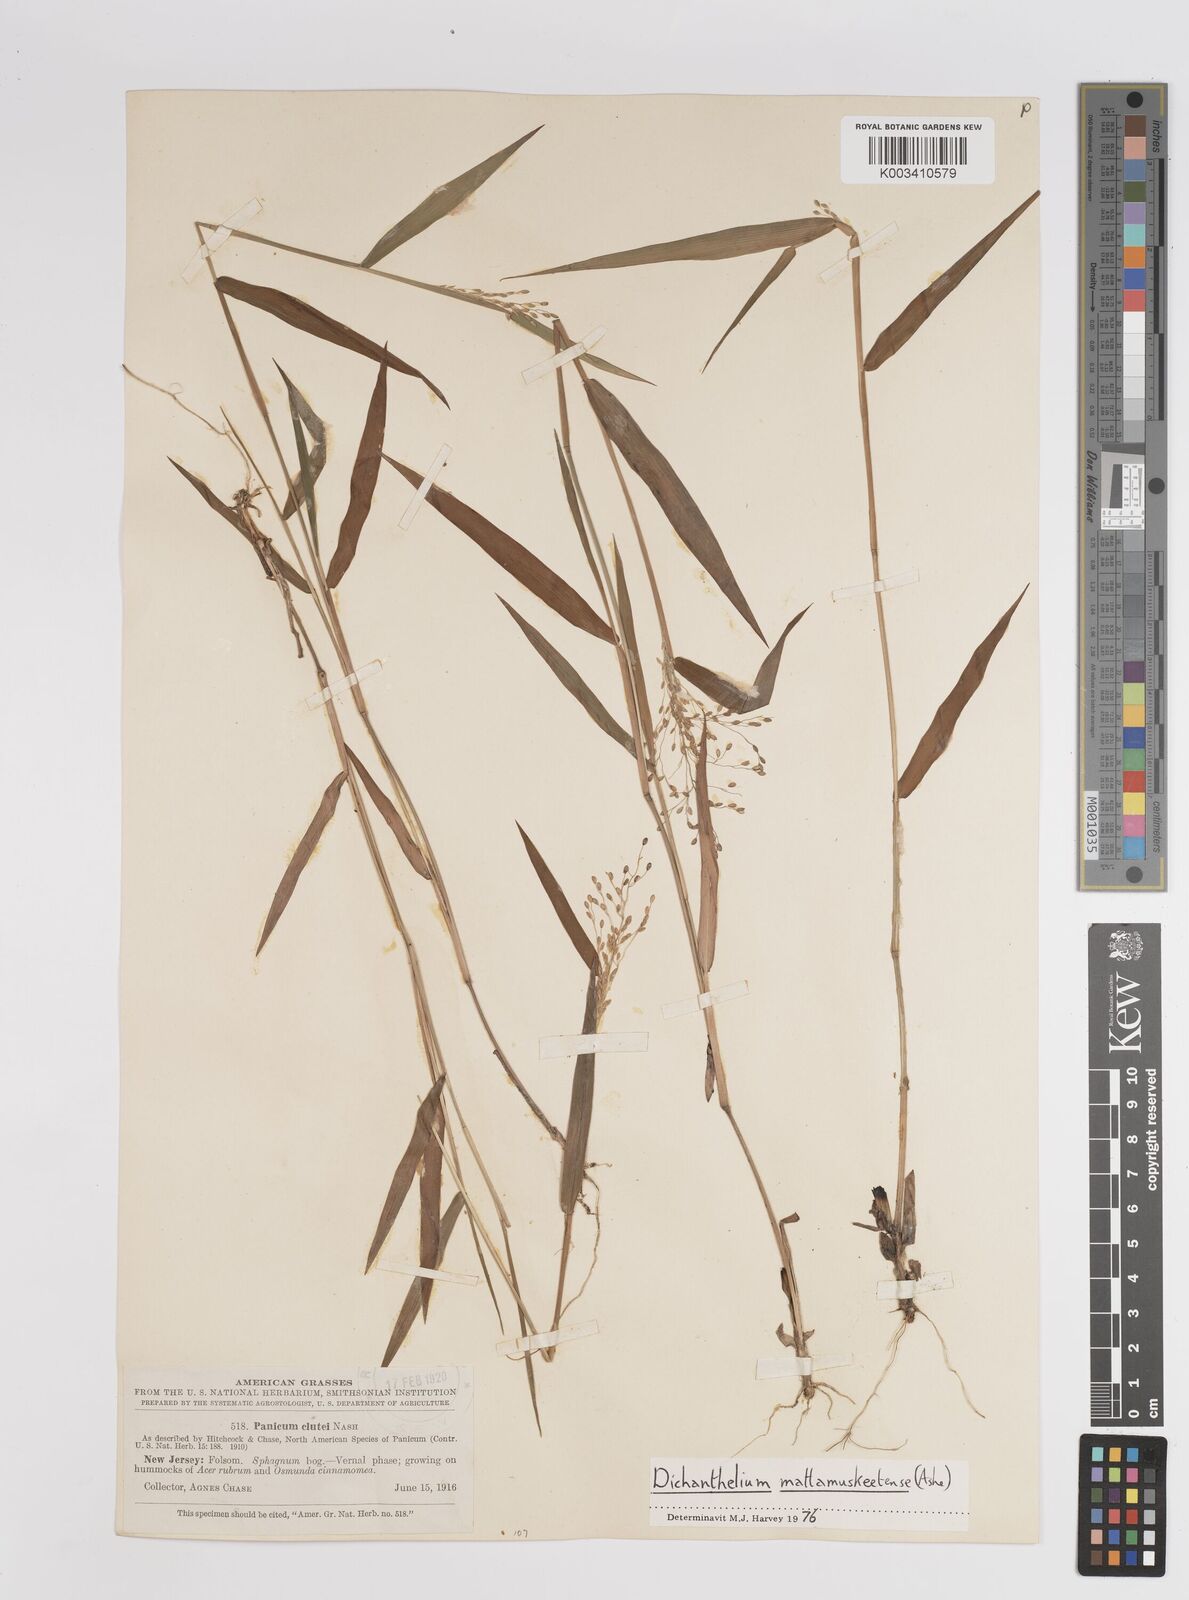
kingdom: Plantae
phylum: Tracheophyta
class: Liliopsida
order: Poales
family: Poaceae
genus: Dichanthelium
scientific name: Dichanthelium mattamuskeetense
